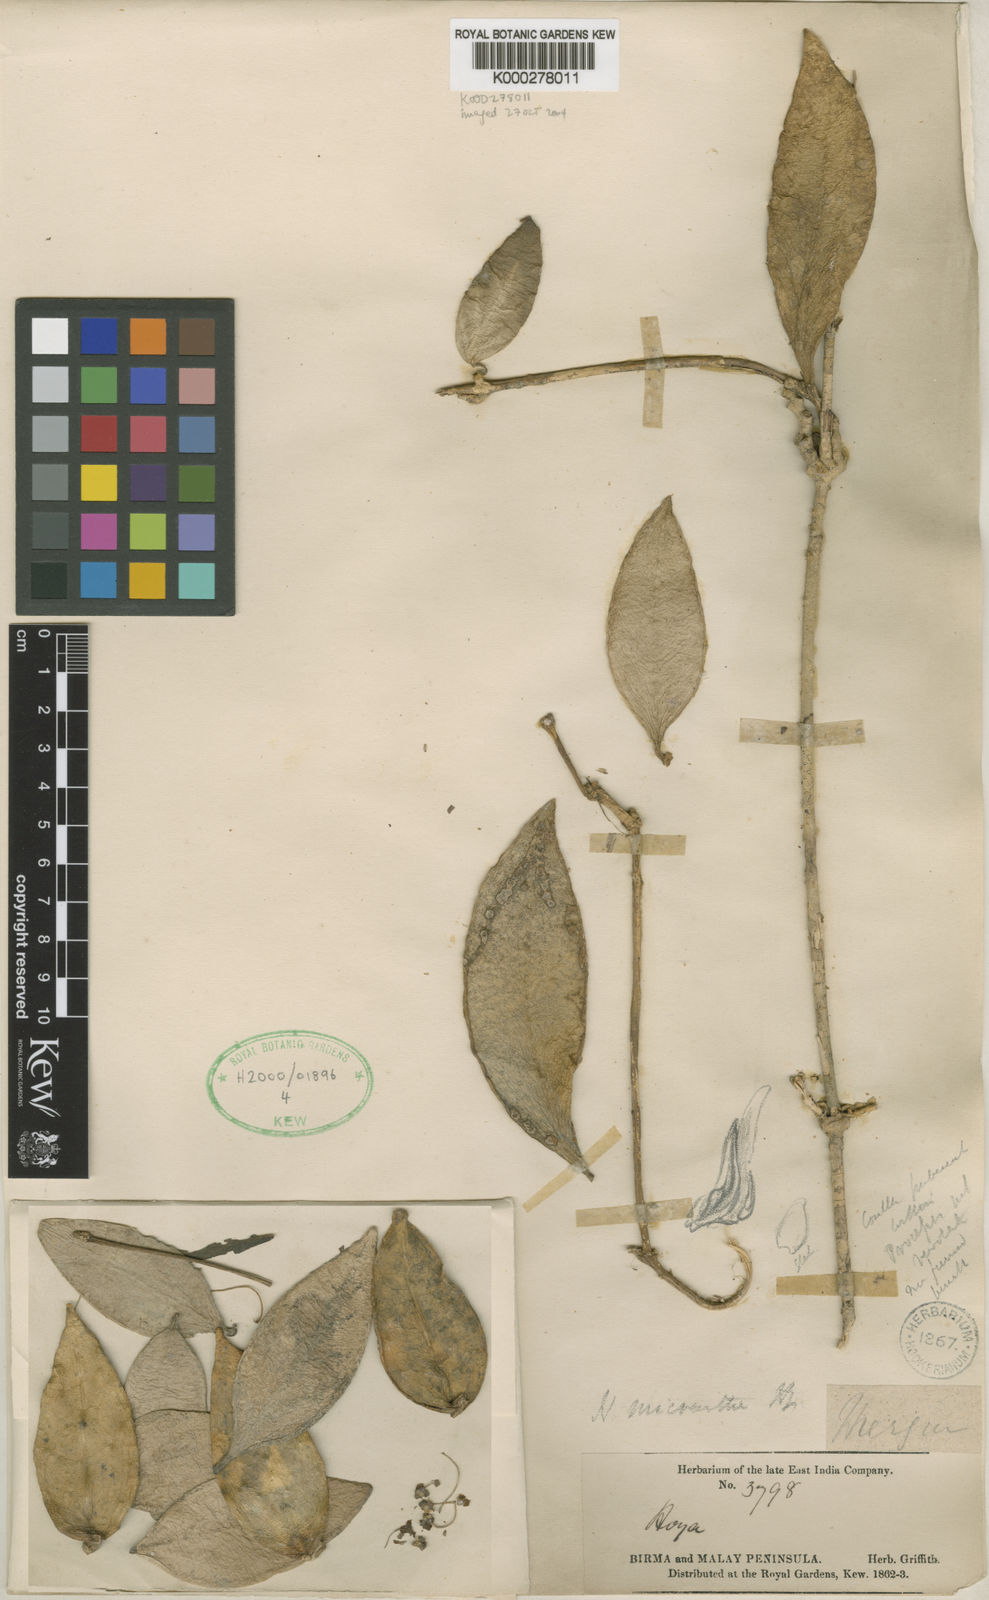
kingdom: Plantae
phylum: Tracheophyta
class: Magnoliopsida
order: Gentianales
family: Apocynaceae
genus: Hoya
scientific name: Hoya micrantha
